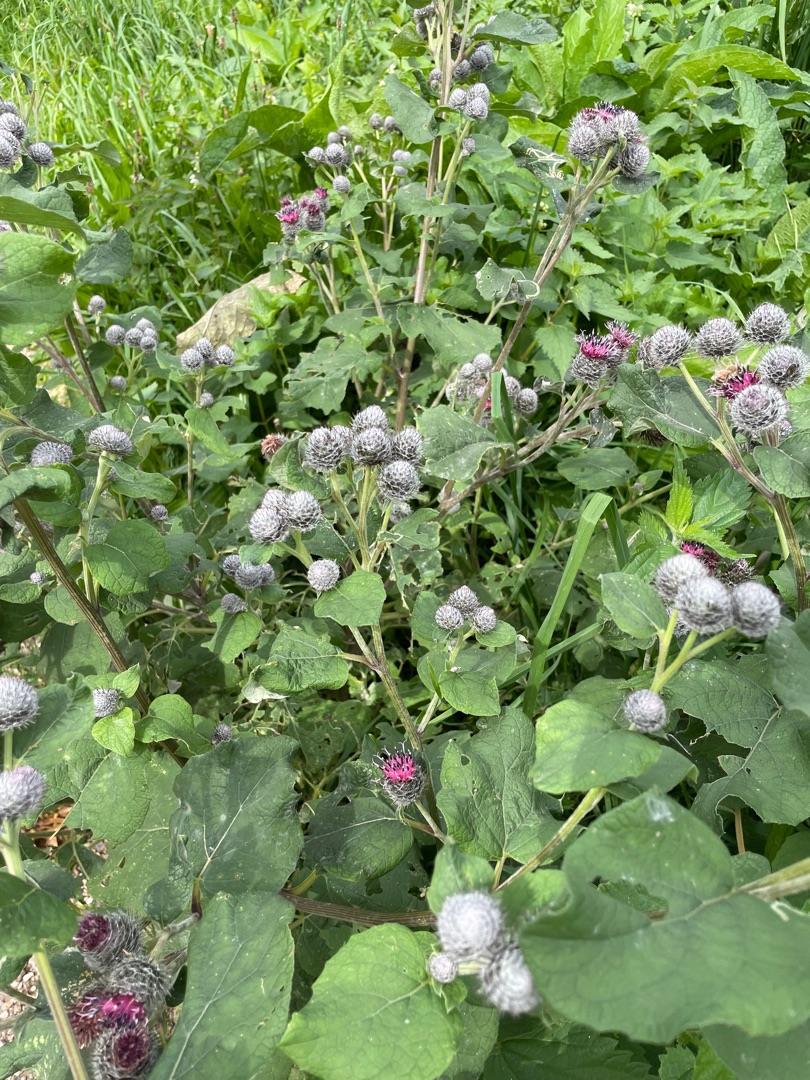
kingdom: Plantae
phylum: Tracheophyta
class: Magnoliopsida
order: Asterales
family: Asteraceae
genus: Arctium
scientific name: Arctium tomentosum
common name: Filtet burre
